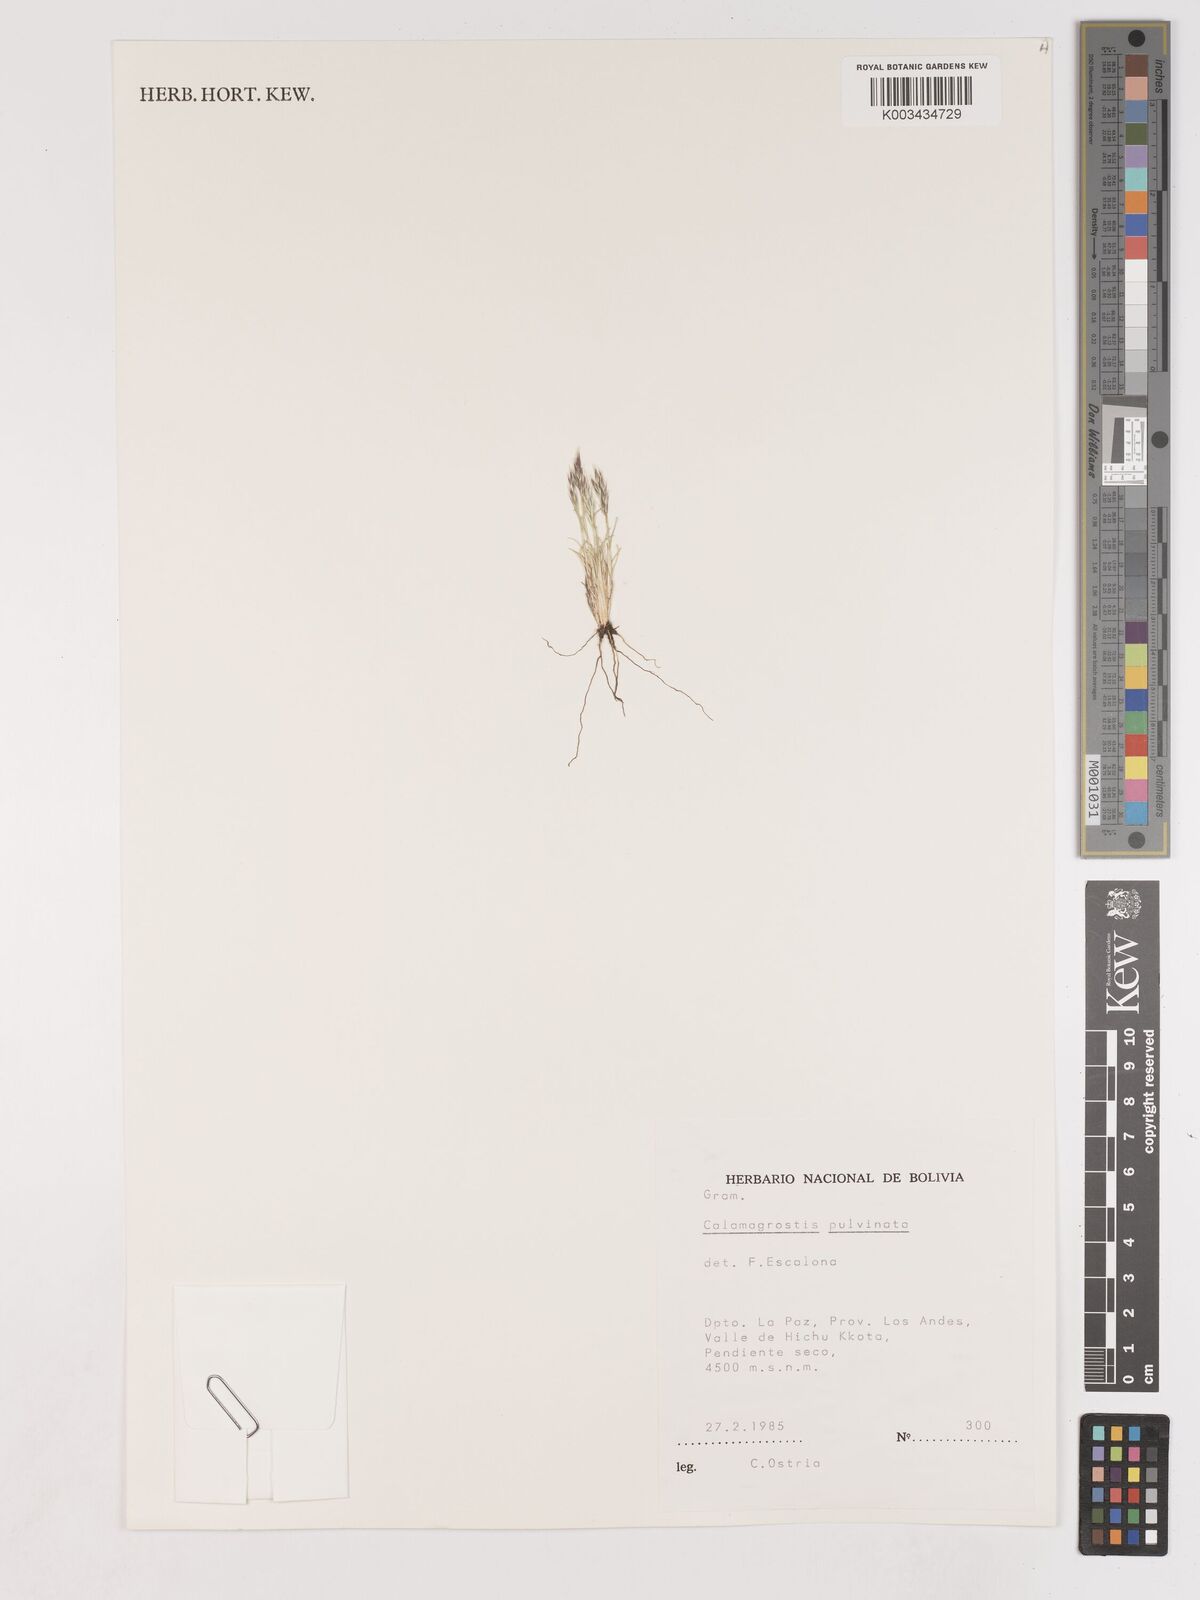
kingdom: Plantae
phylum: Tracheophyta
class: Liliopsida
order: Poales
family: Poaceae
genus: Cinnagrostis
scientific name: Cinnagrostis vicunarum
